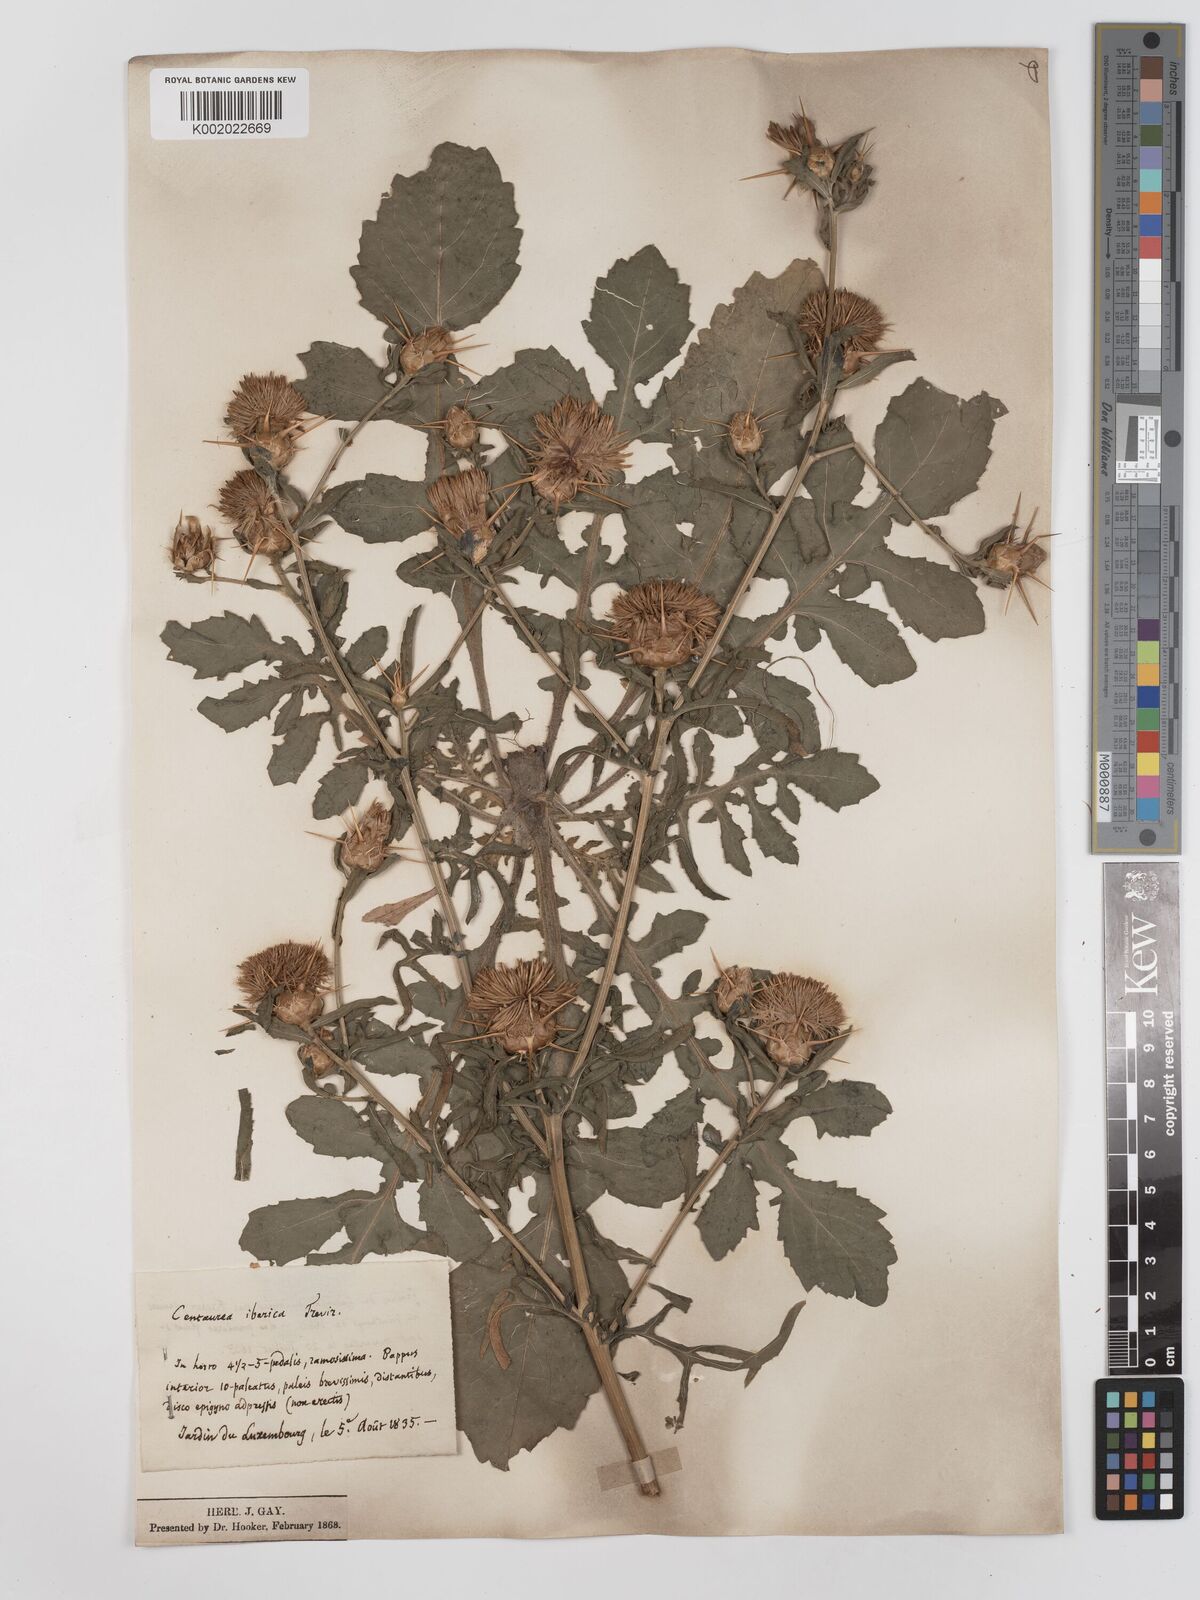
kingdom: Plantae
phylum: Tracheophyta
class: Magnoliopsida
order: Asterales
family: Asteraceae
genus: Centaurea
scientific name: Centaurea iberica
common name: Iberian knapweed
